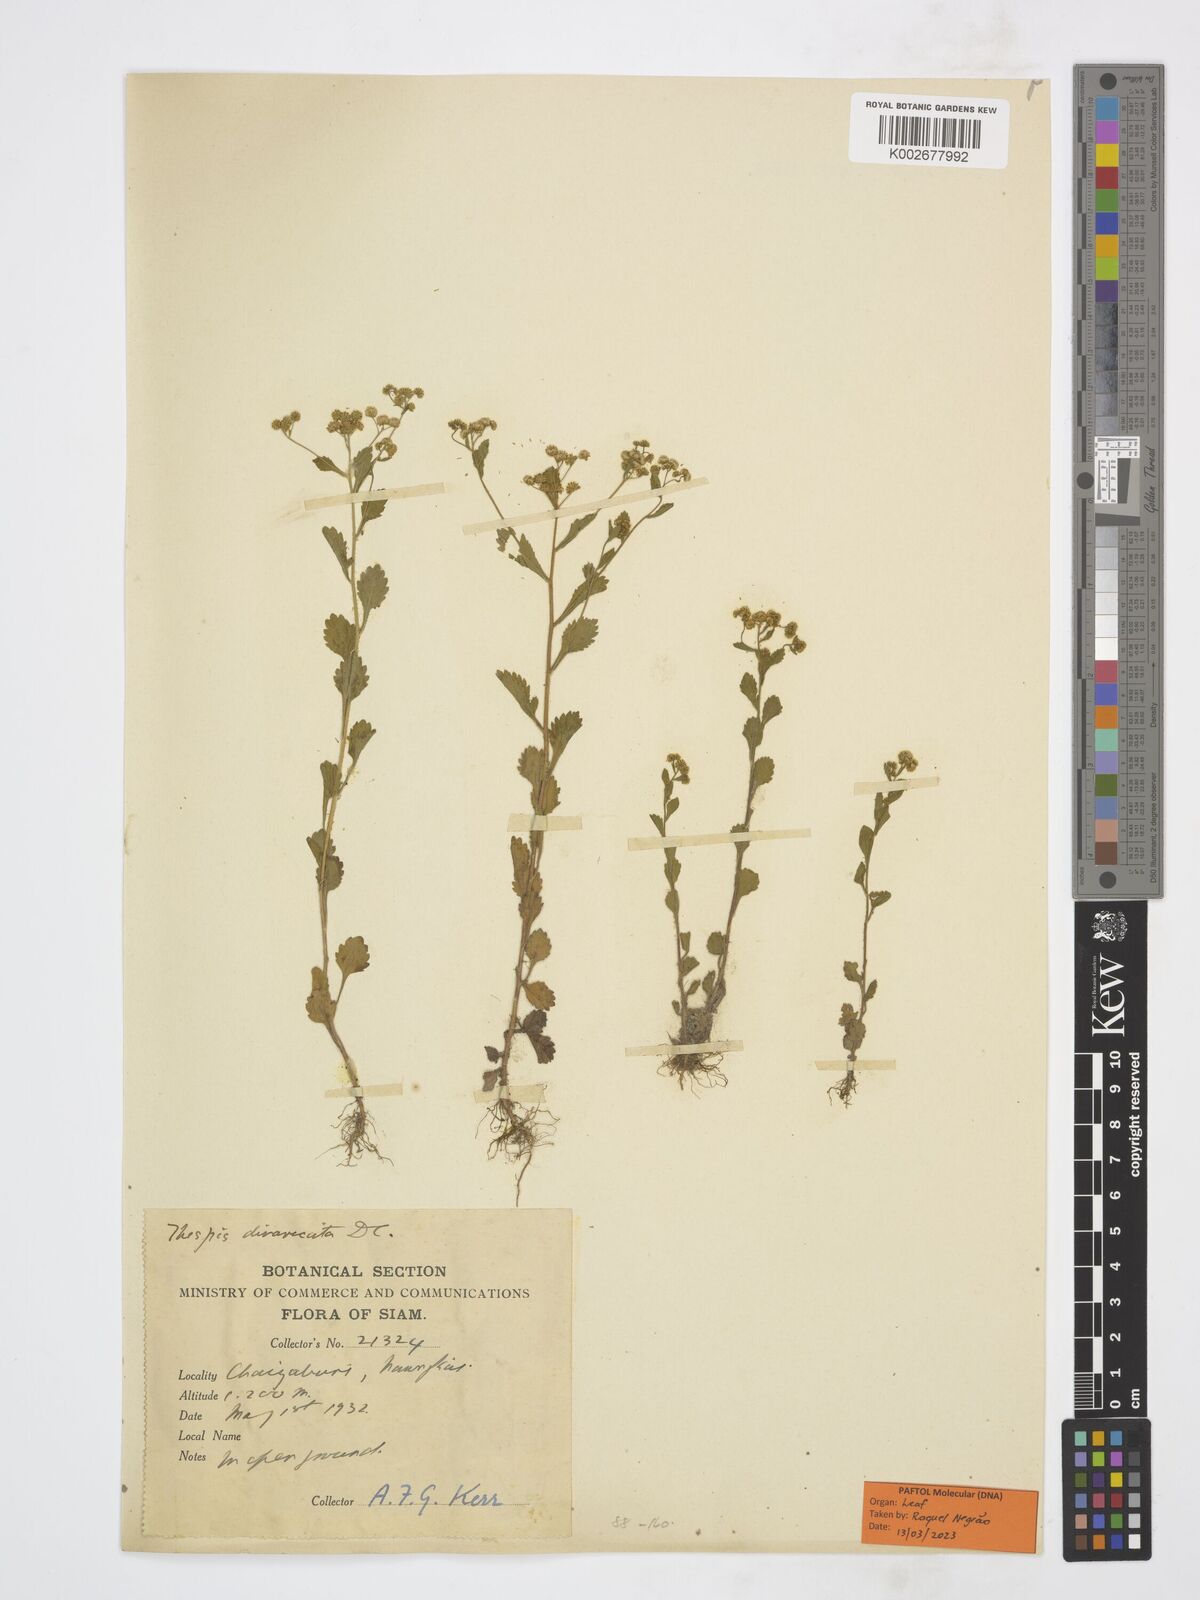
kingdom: Plantae
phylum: Tracheophyta
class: Magnoliopsida
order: Asterales
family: Asteraceae
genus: Thespis
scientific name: Thespis divaricata
